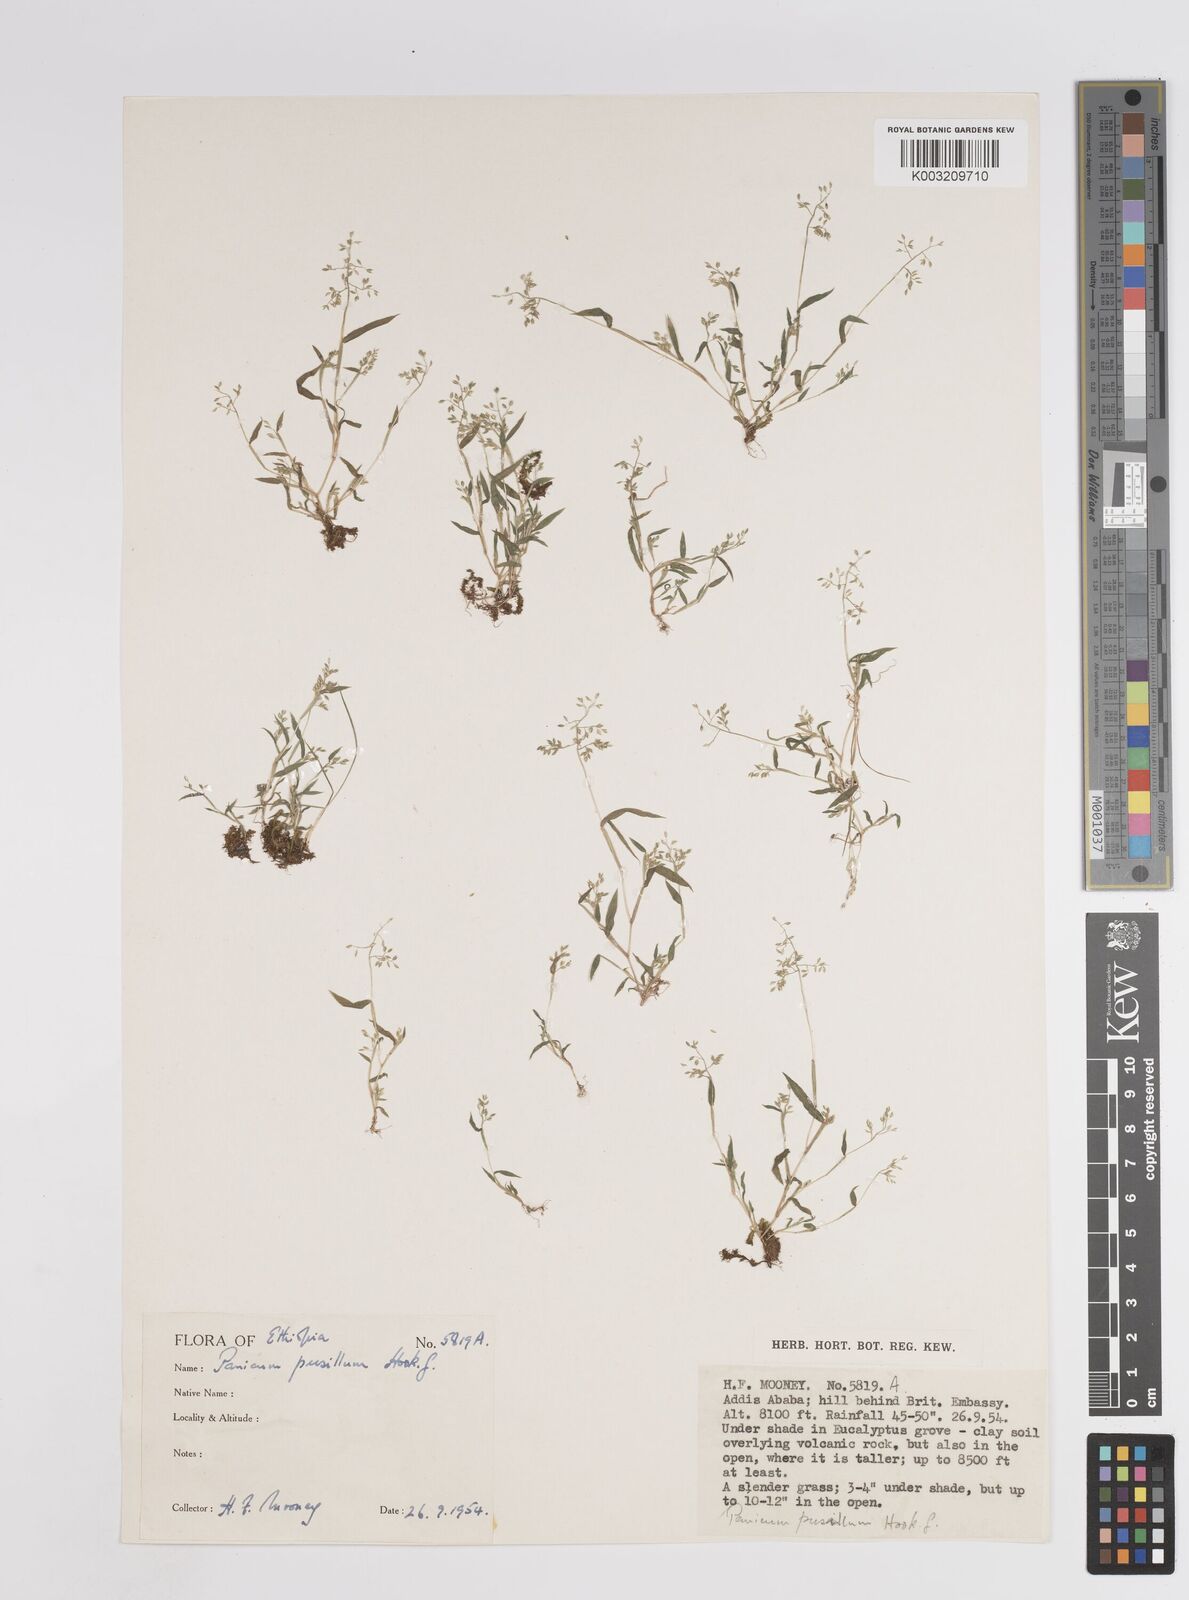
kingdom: Plantae
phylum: Tracheophyta
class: Liliopsida
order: Poales
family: Poaceae
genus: Panicum
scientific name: Panicum pusillum
